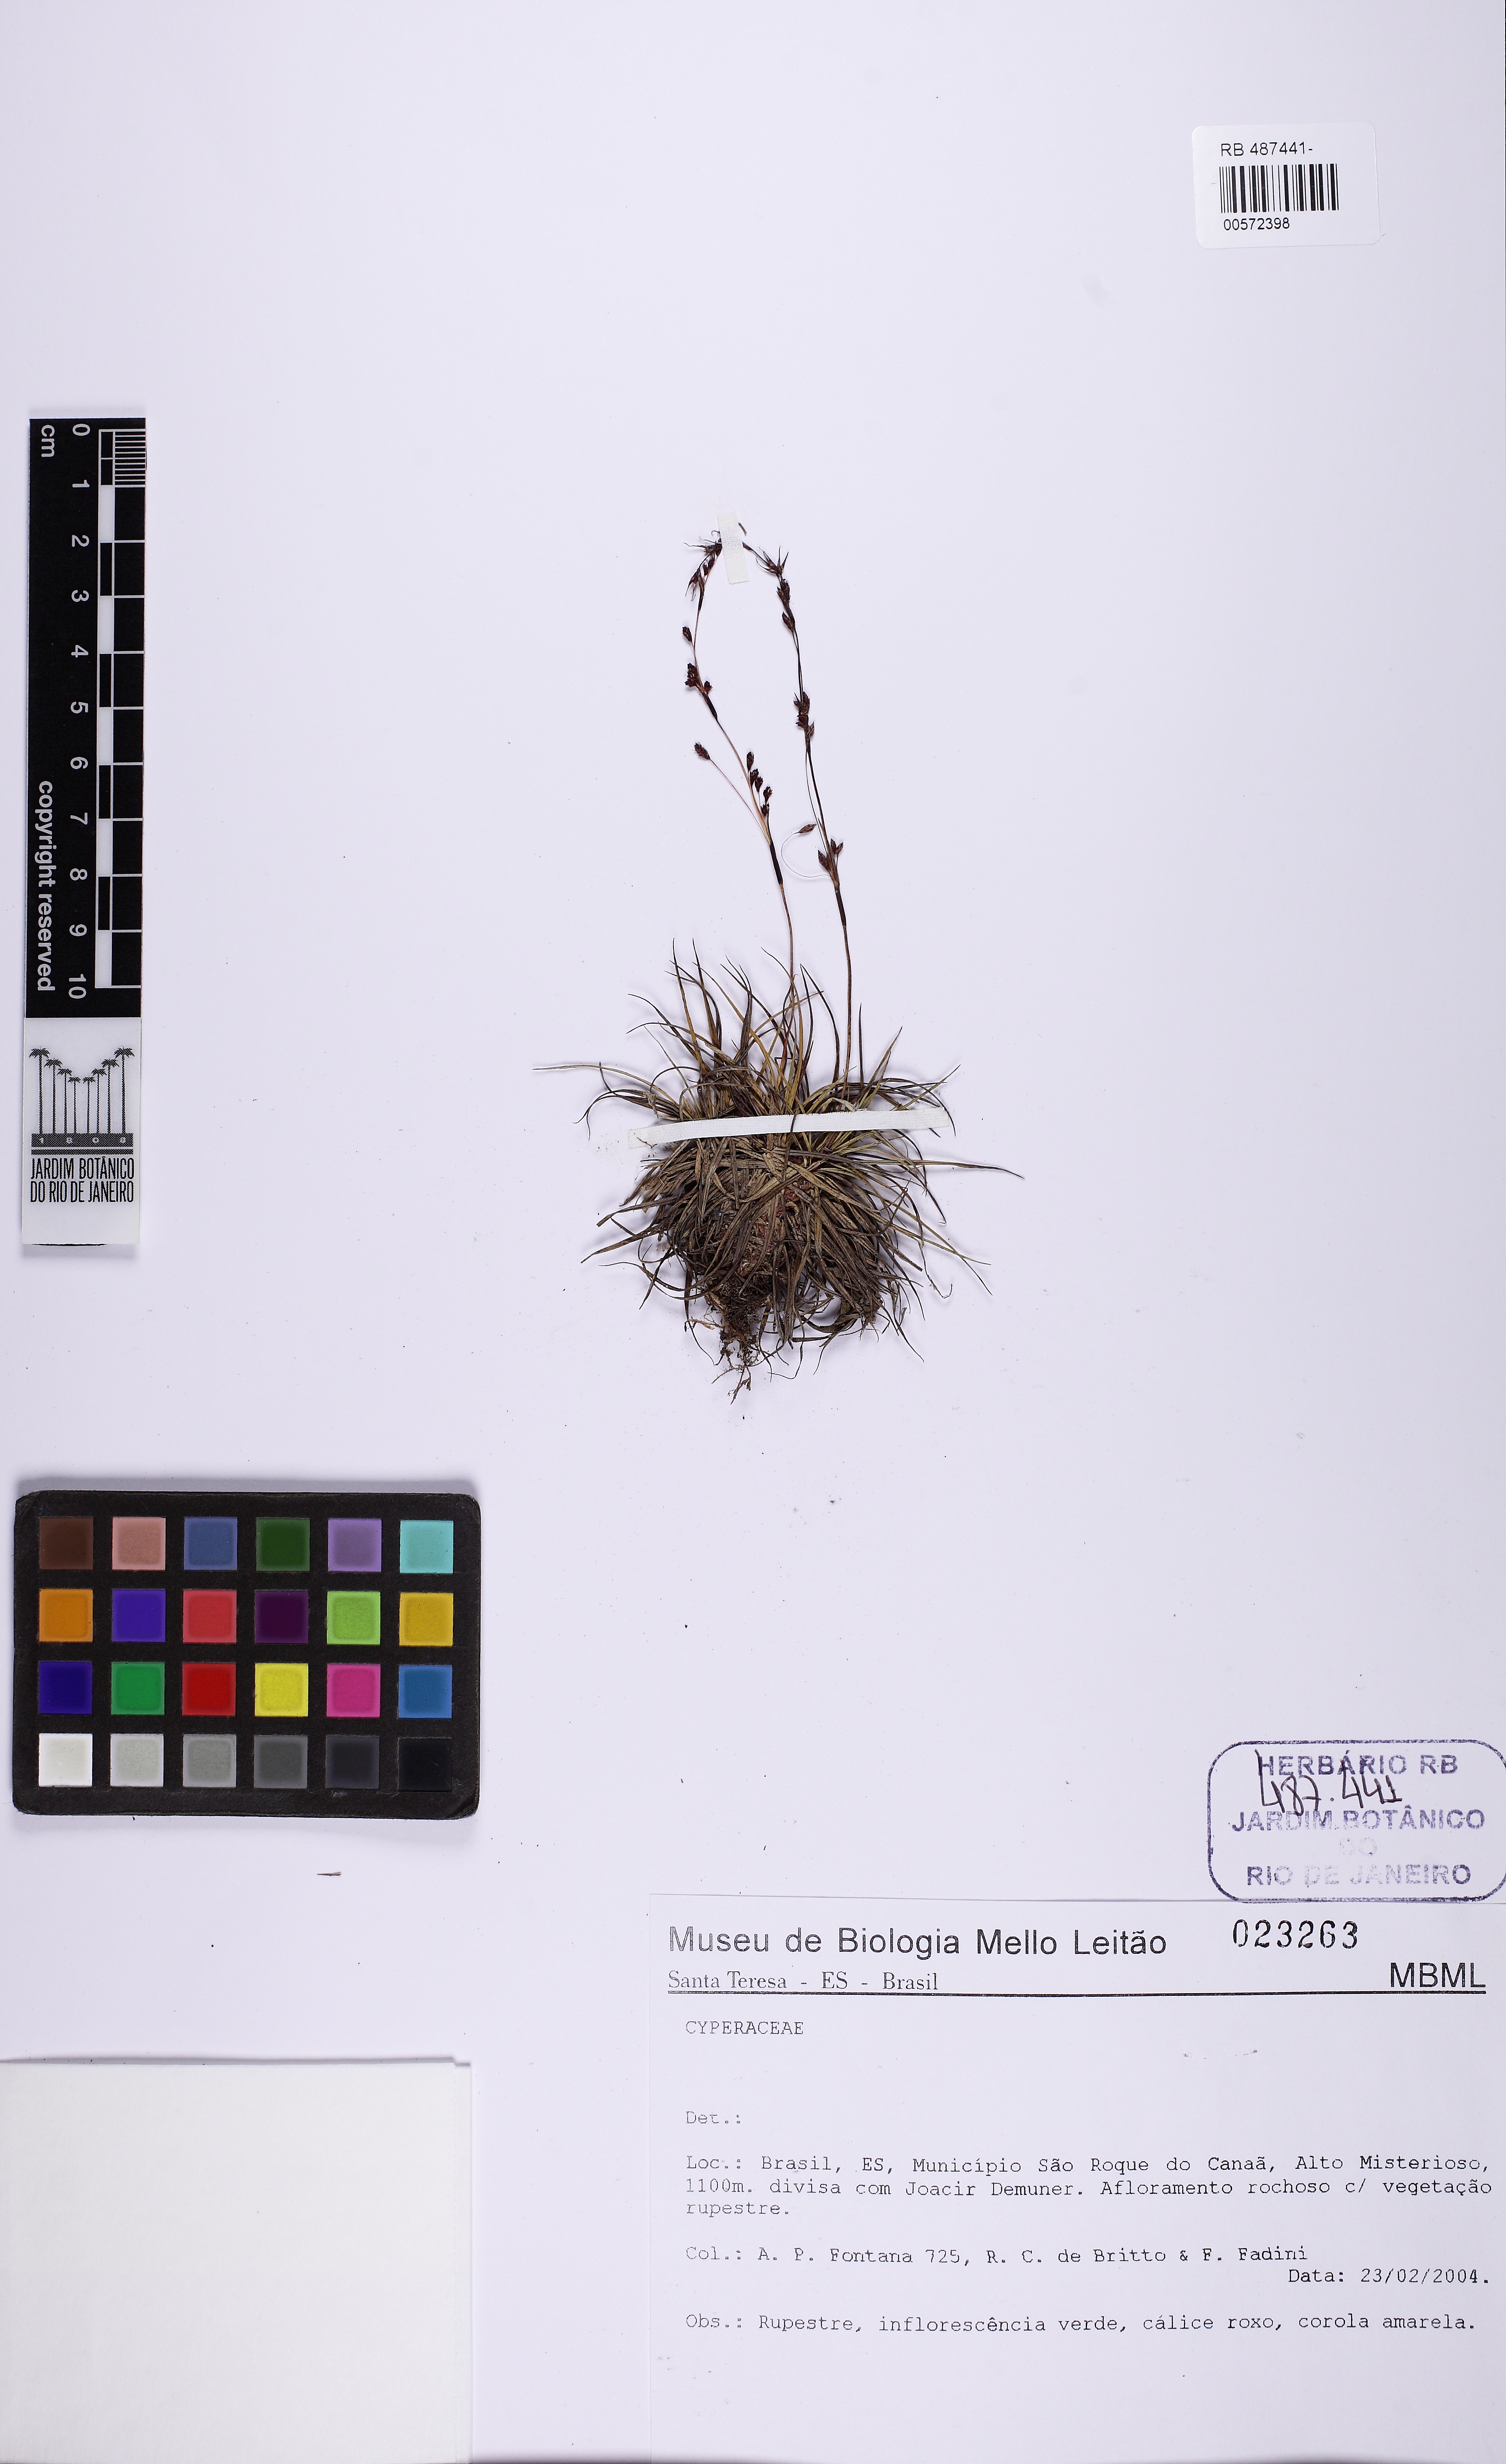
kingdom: Plantae
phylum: Tracheophyta
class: Liliopsida
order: Poales
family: Cyperaceae
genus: Lagenocarpus
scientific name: Lagenocarpus
